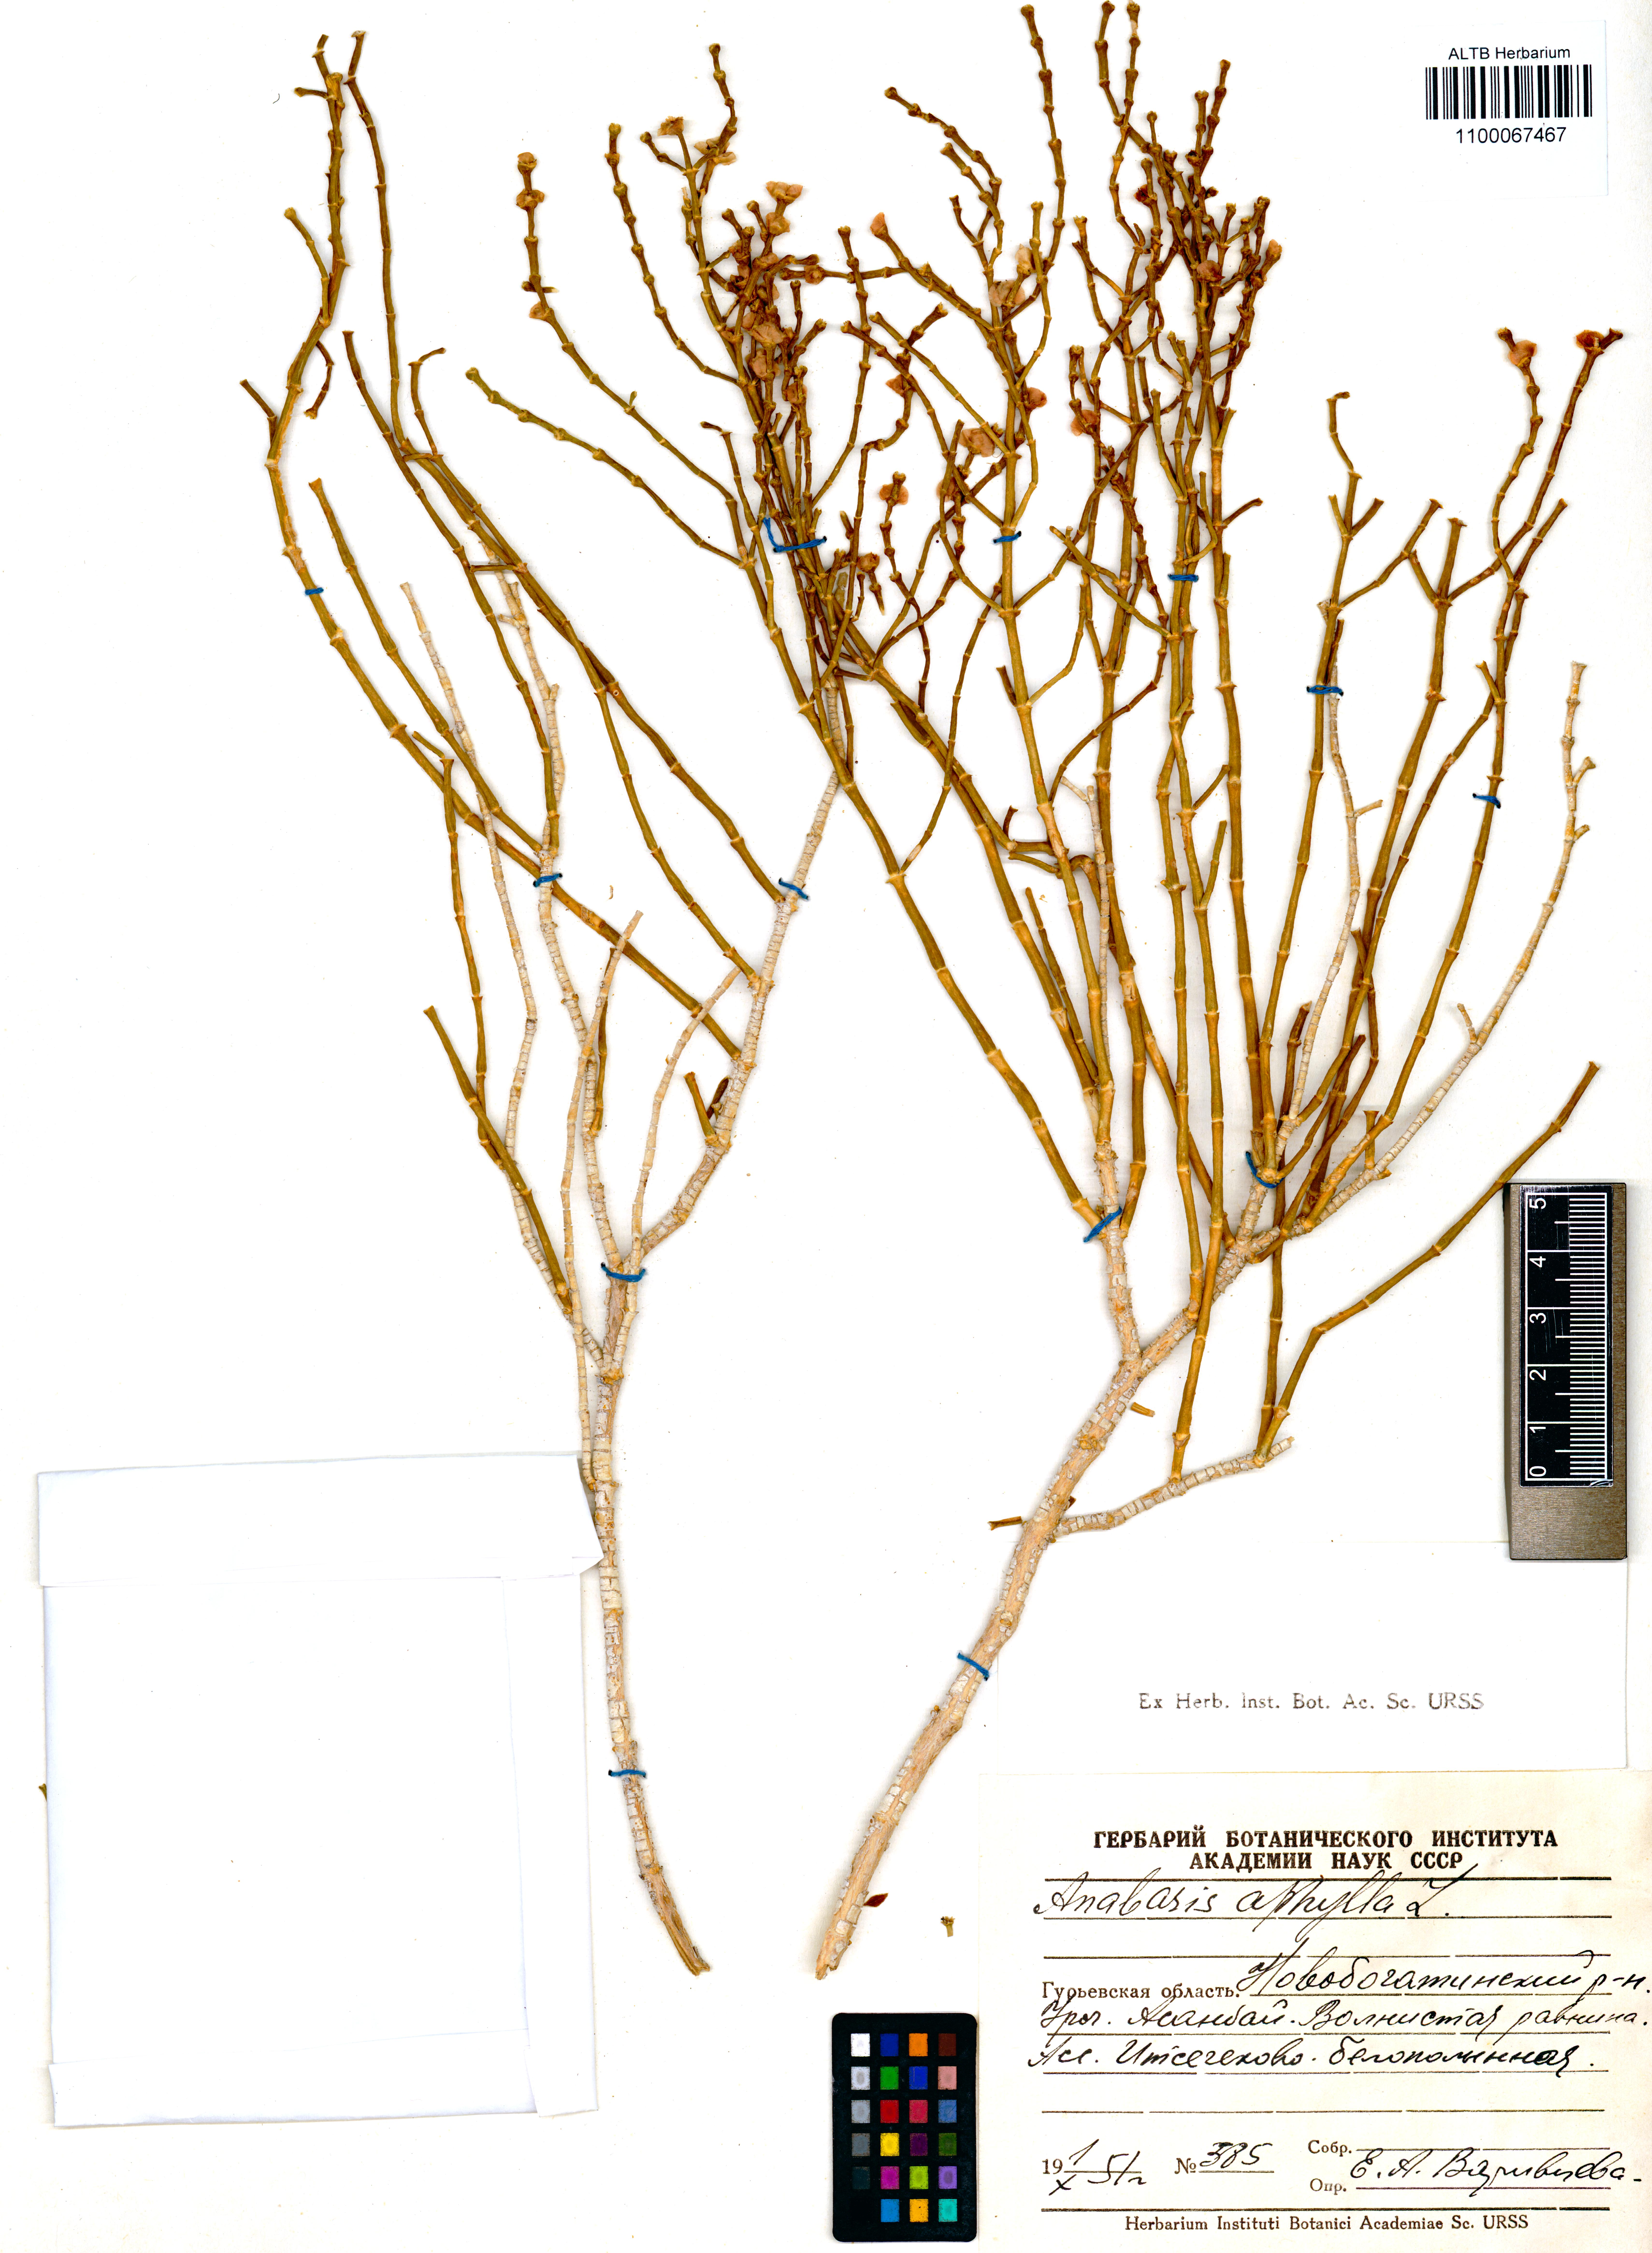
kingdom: Plantae
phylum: Tracheophyta
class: Magnoliopsida
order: Caryophyllales
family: Amaranthaceae
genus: Anabasis
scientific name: Anabasis aphylla
